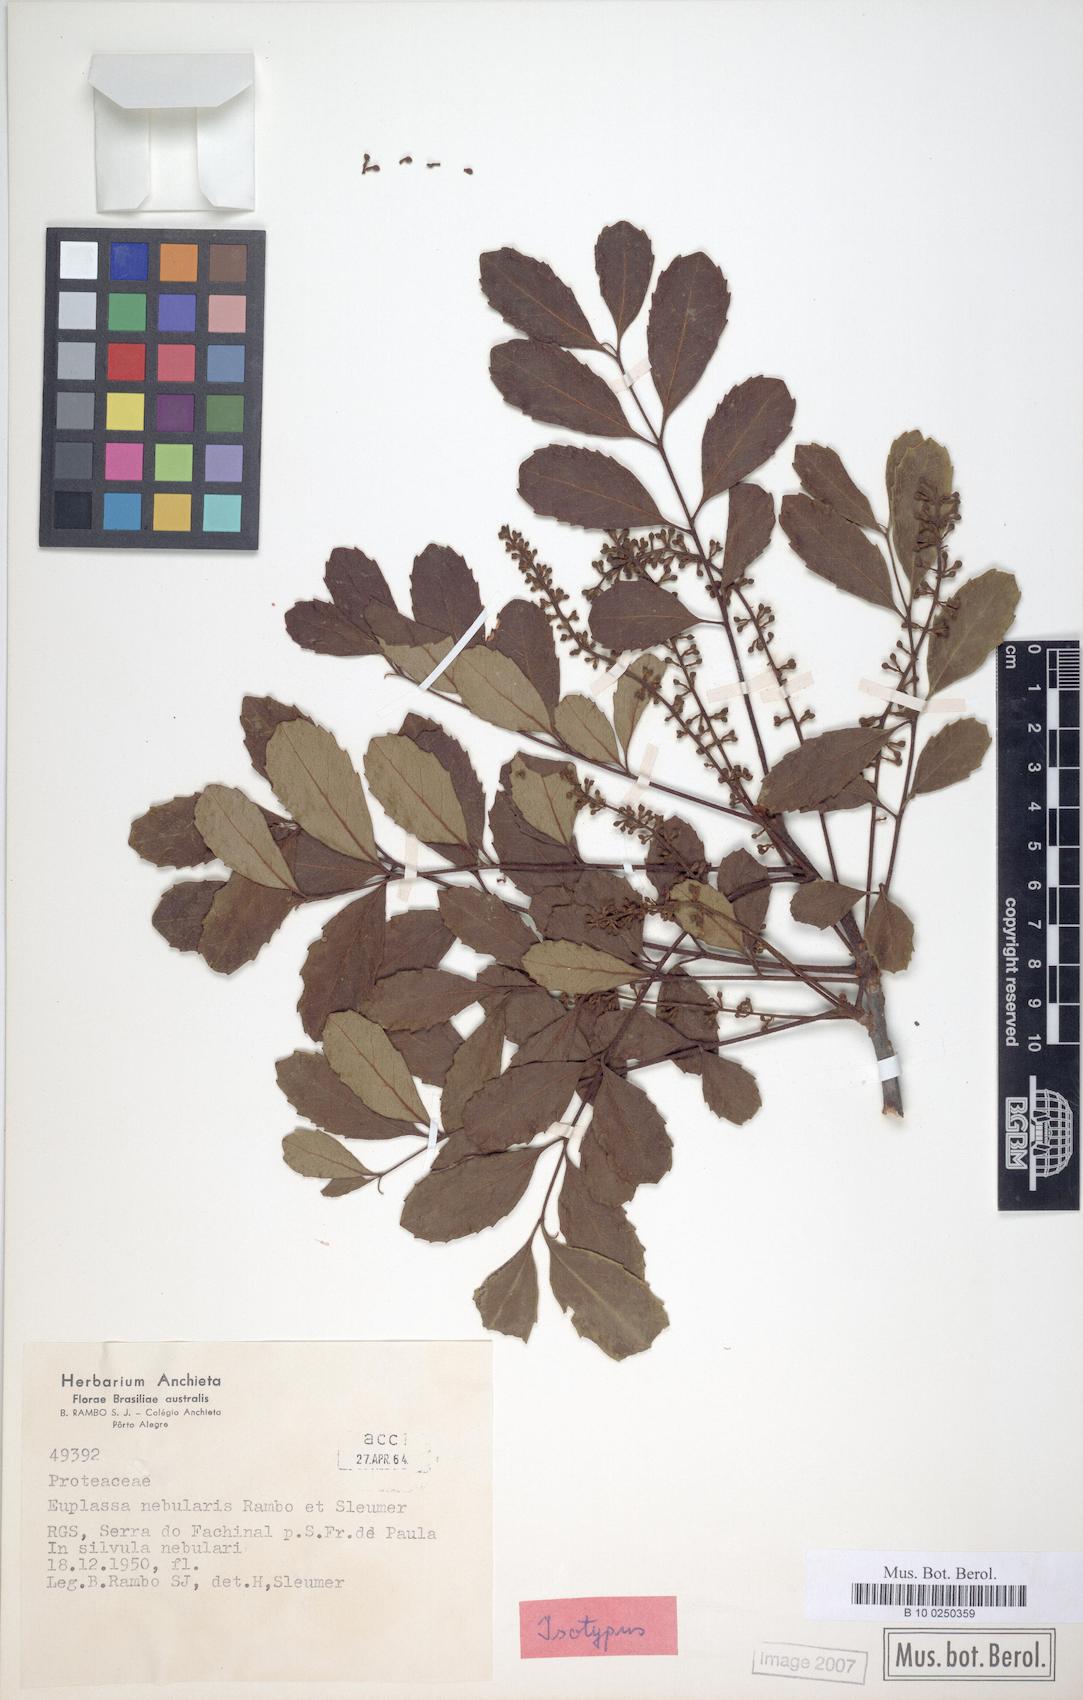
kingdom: Plantae
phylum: Tracheophyta
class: Magnoliopsida
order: Proteales
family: Proteaceae
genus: Euplassa
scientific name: Euplassa nebularis
